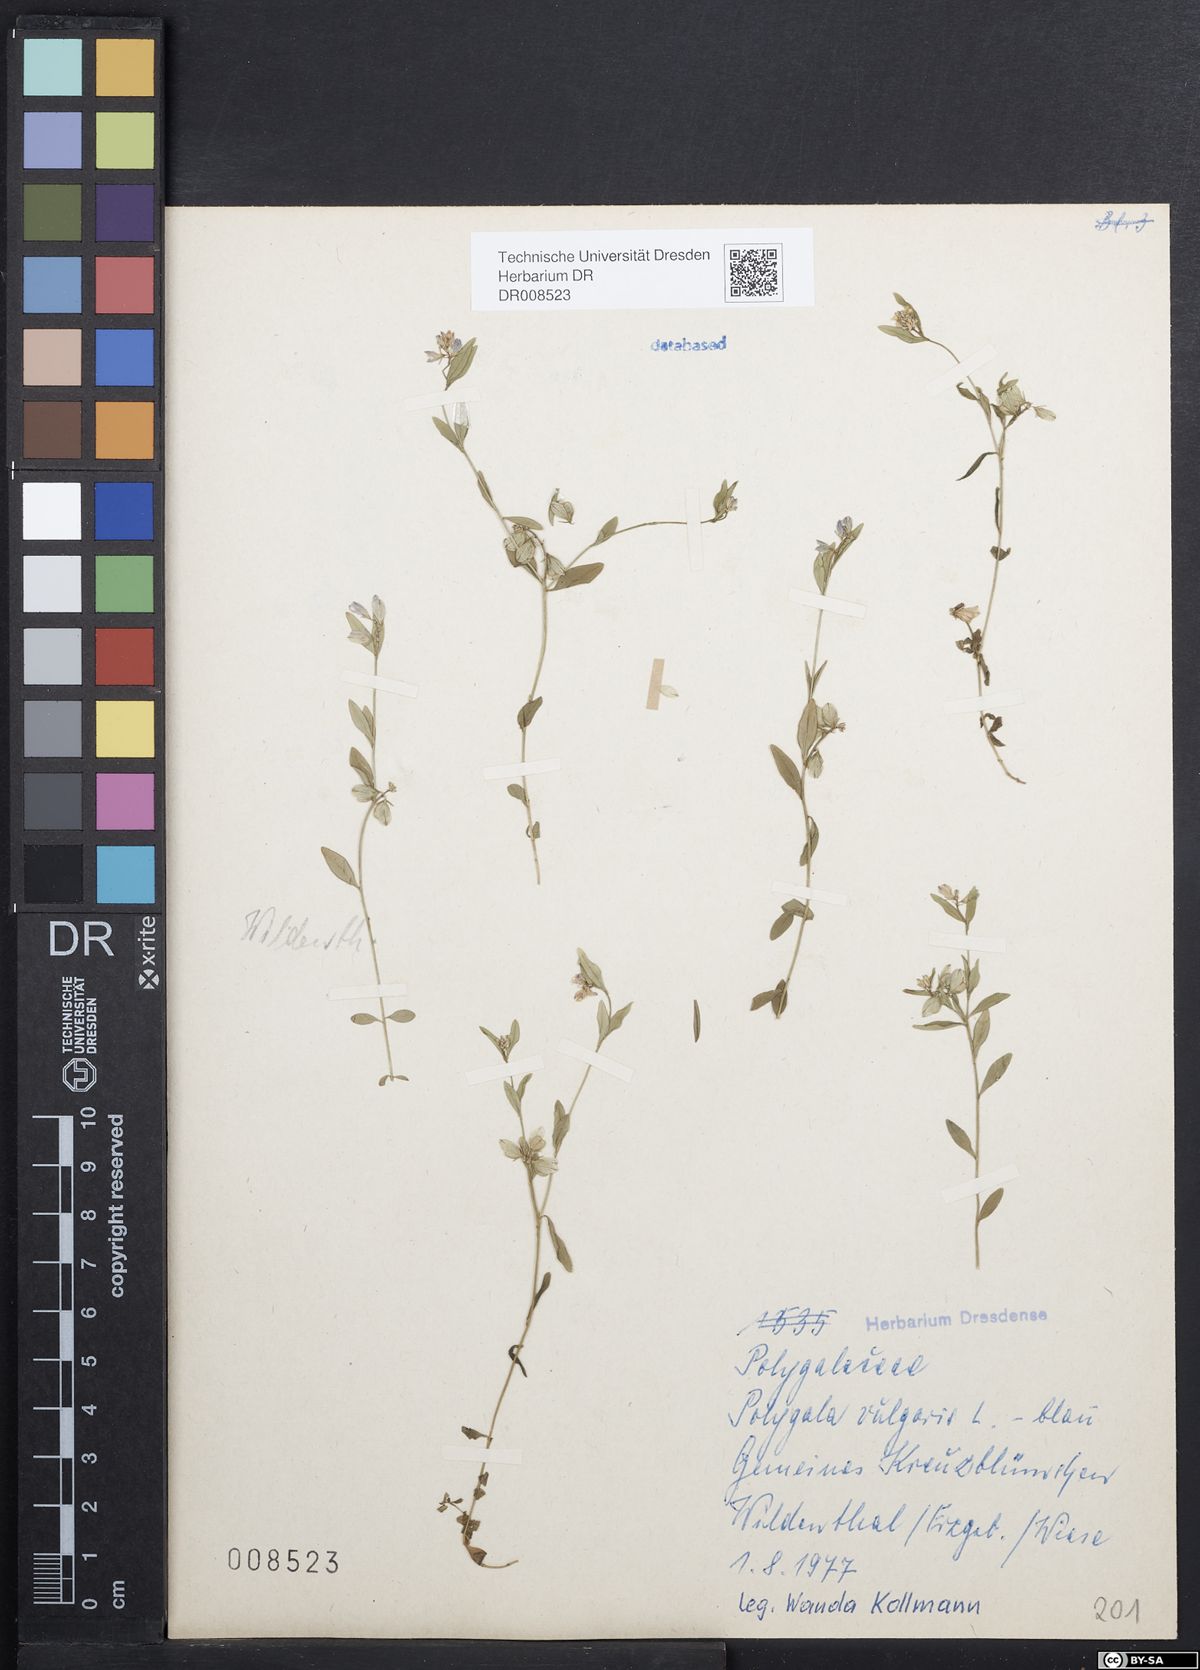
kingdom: Plantae
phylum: Tracheophyta
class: Magnoliopsida
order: Fabales
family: Polygalaceae
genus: Polygala
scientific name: Polygala vulgaris
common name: Common milkwort
